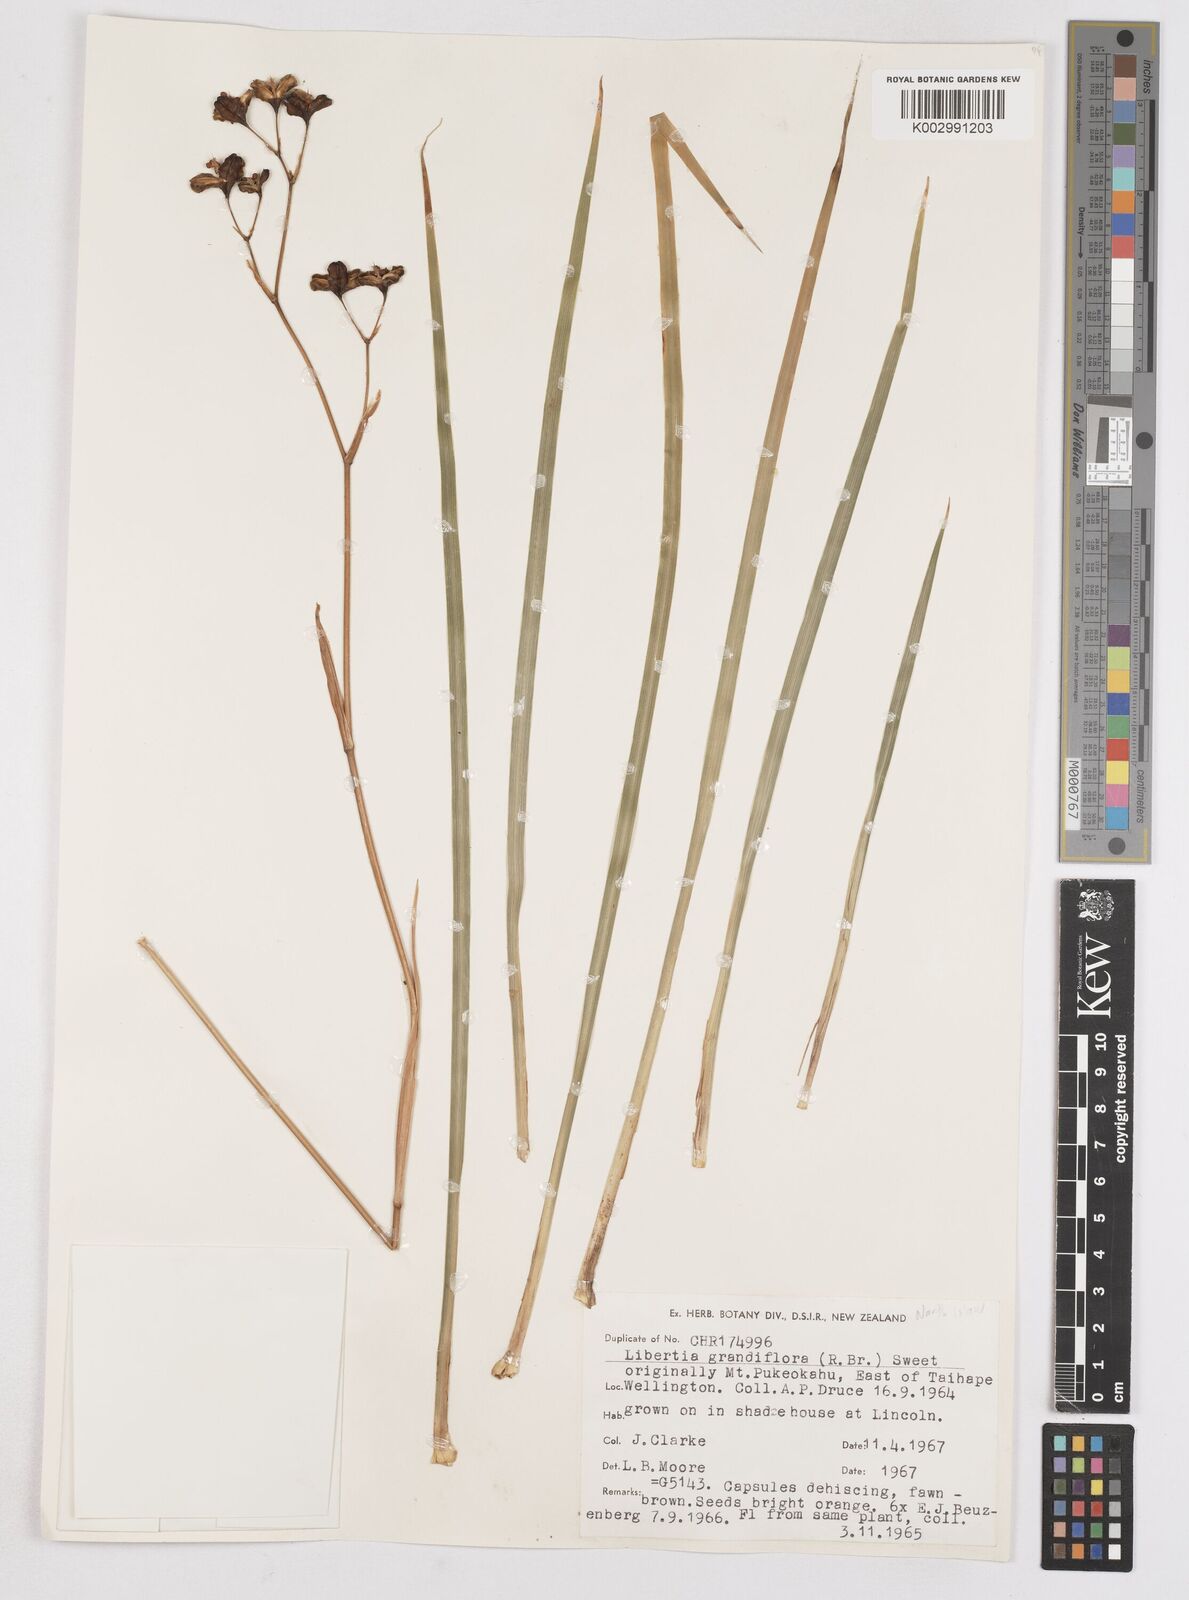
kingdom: Plantae
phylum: Tracheophyta
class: Liliopsida
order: Asparagales
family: Iridaceae
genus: Libertia
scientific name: Libertia grandiflora
